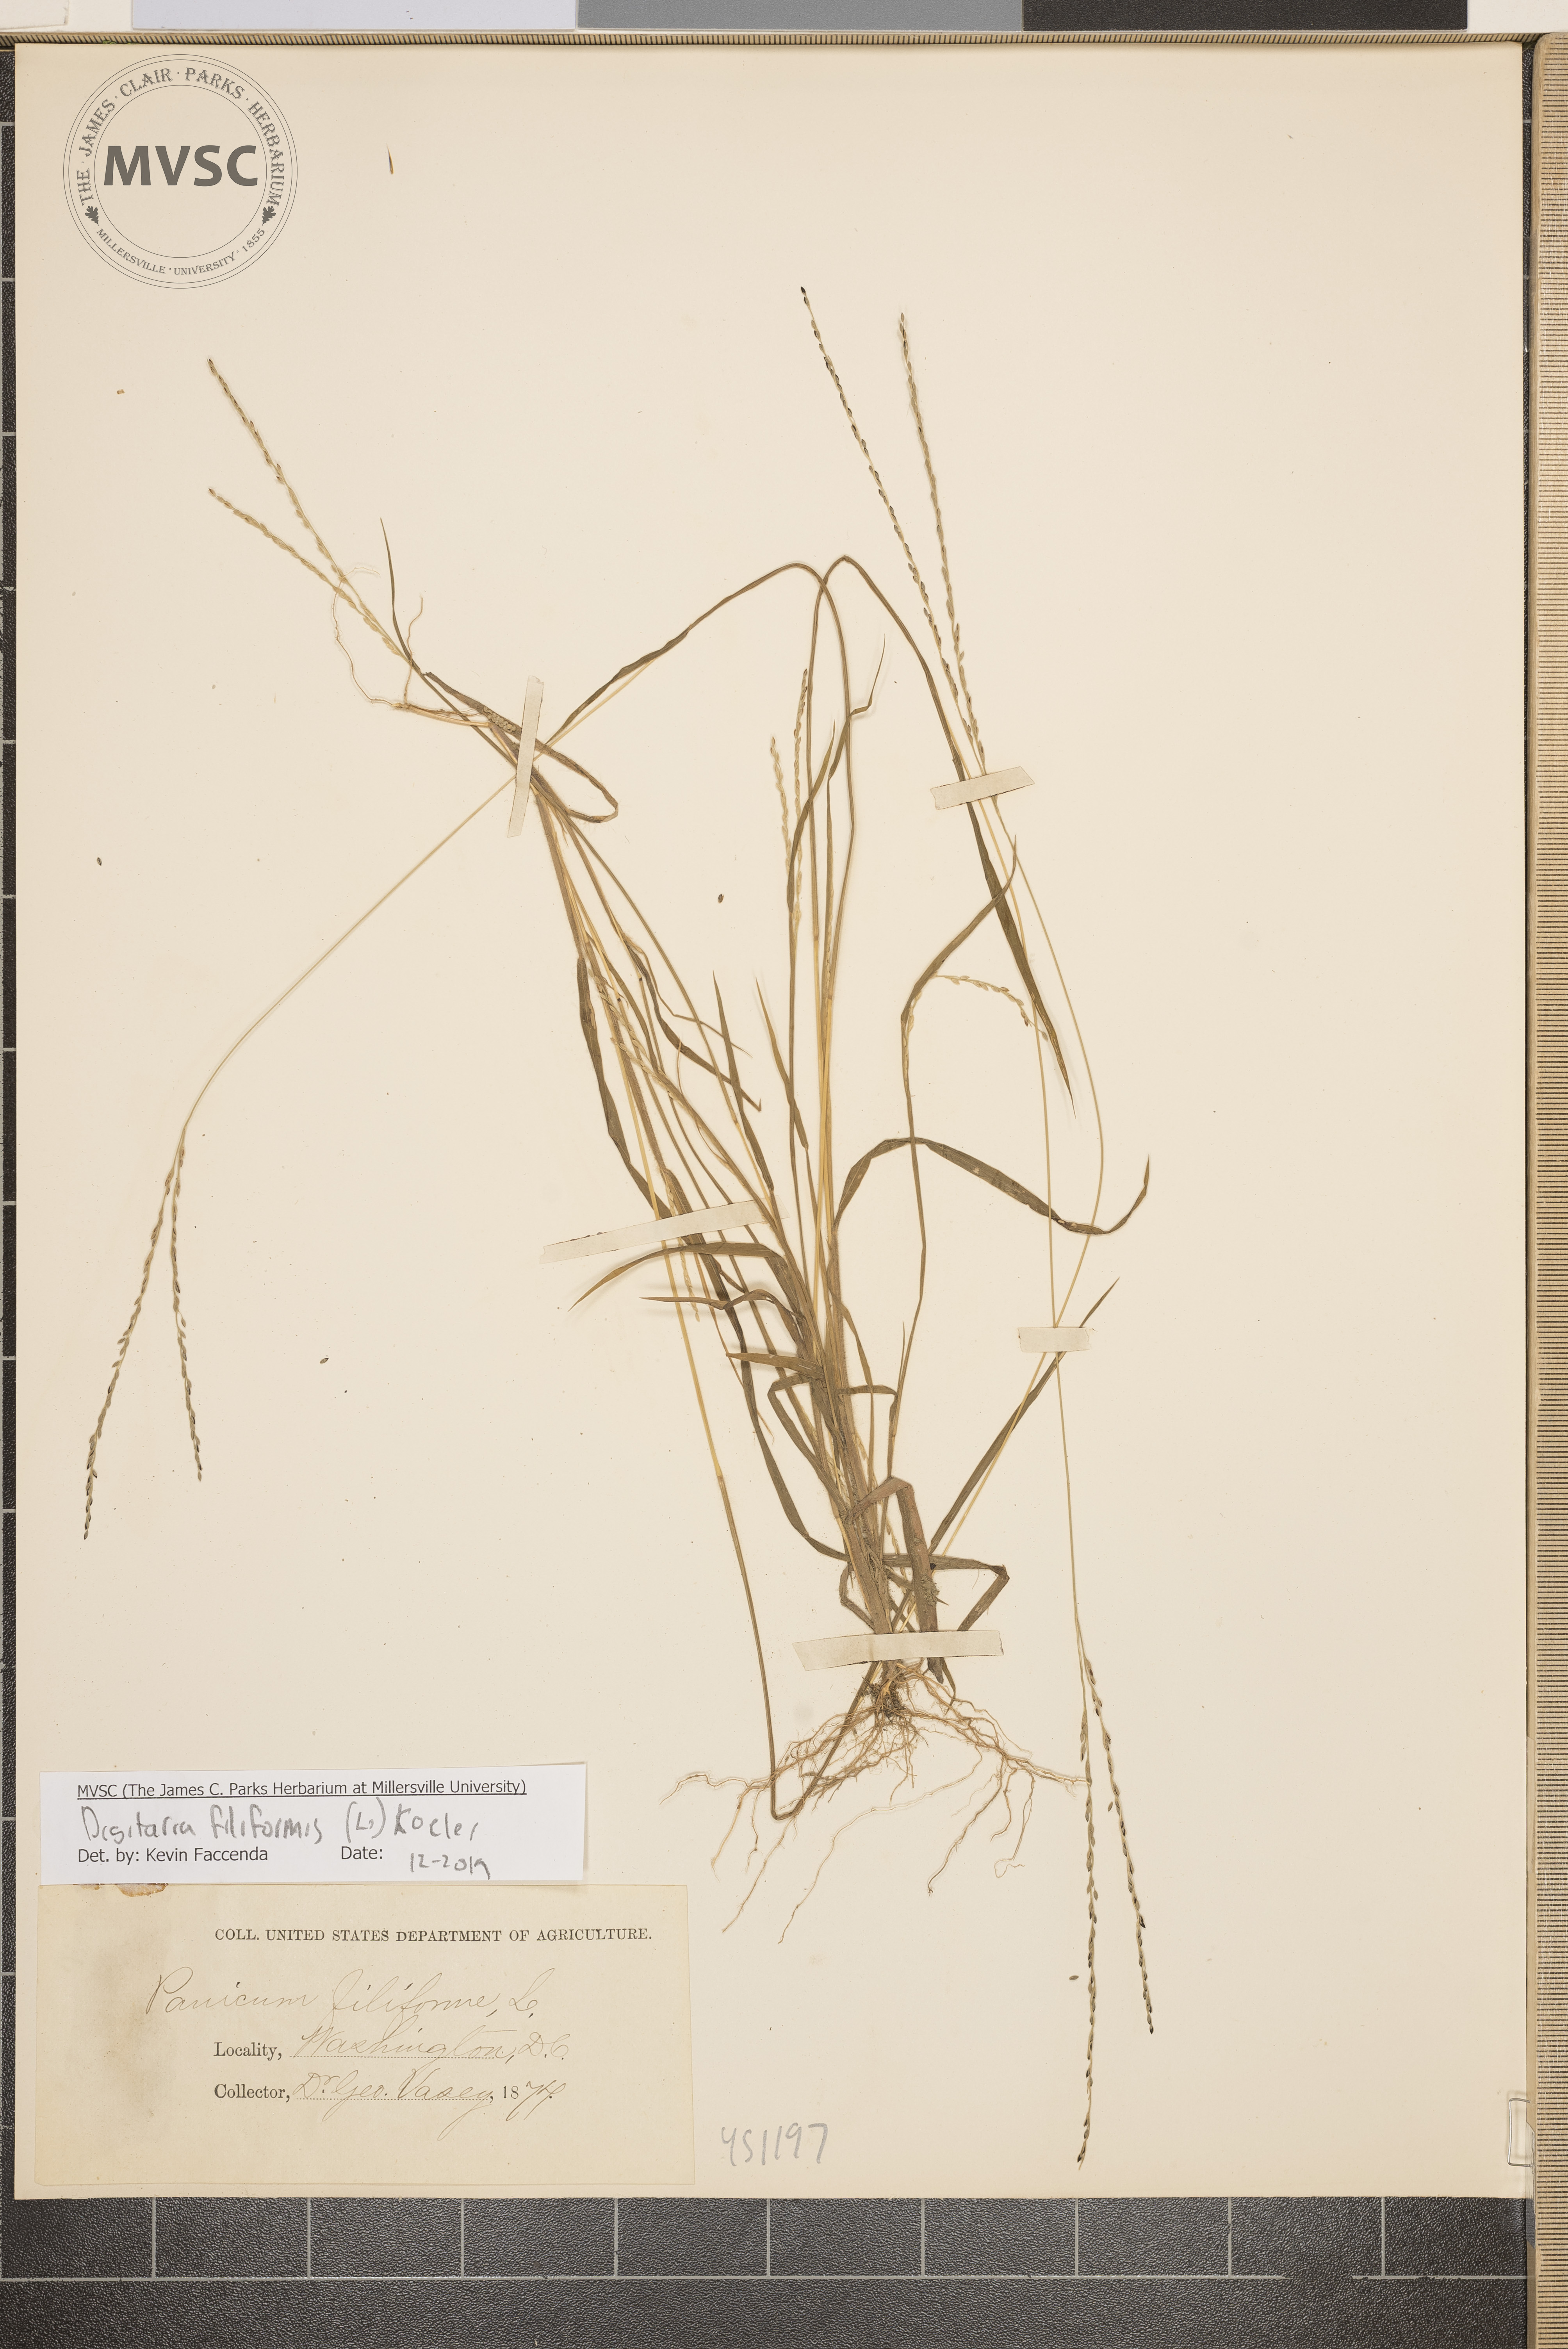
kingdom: Plantae
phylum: Tracheophyta
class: Liliopsida
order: Poales
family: Poaceae
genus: Digitaria
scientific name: Digitaria filiformis
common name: Slender crabgrass
